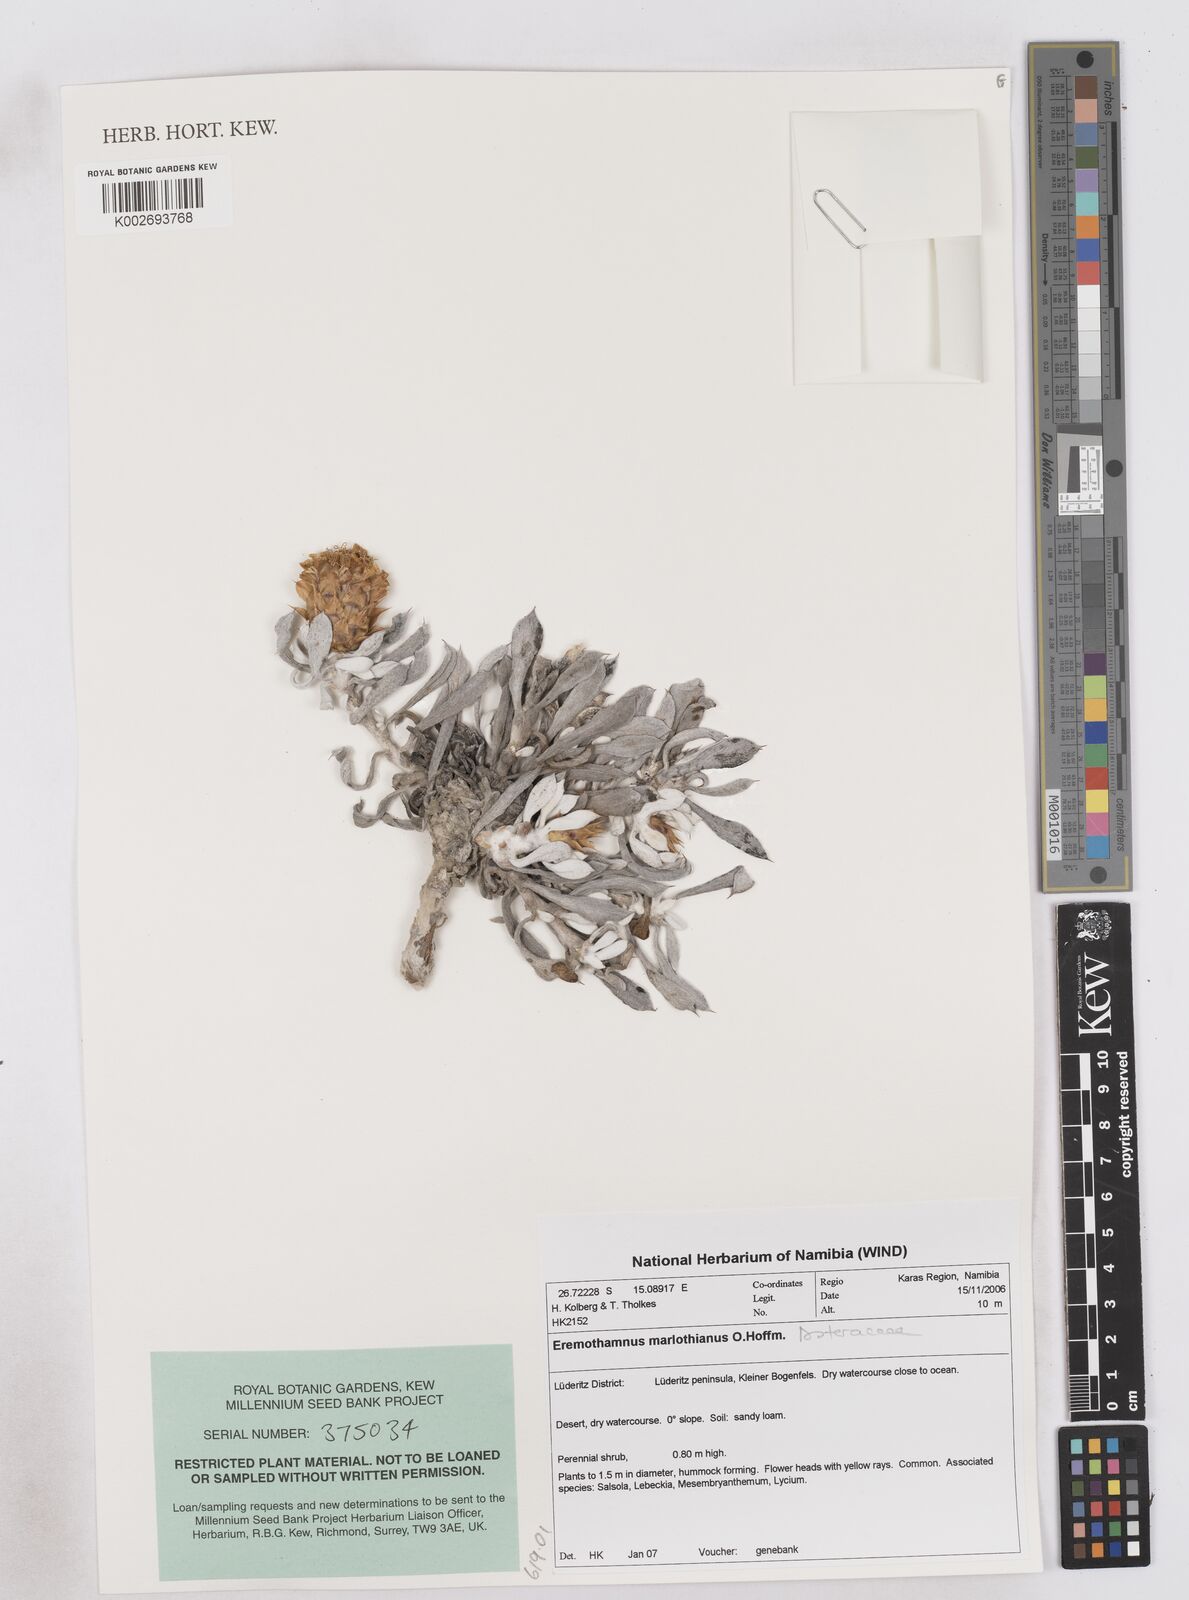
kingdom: Plantae
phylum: Tracheophyta
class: Magnoliopsida
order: Asterales
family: Asteraceae
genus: Eremothamnus
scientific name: Eremothamnus marlothianus
